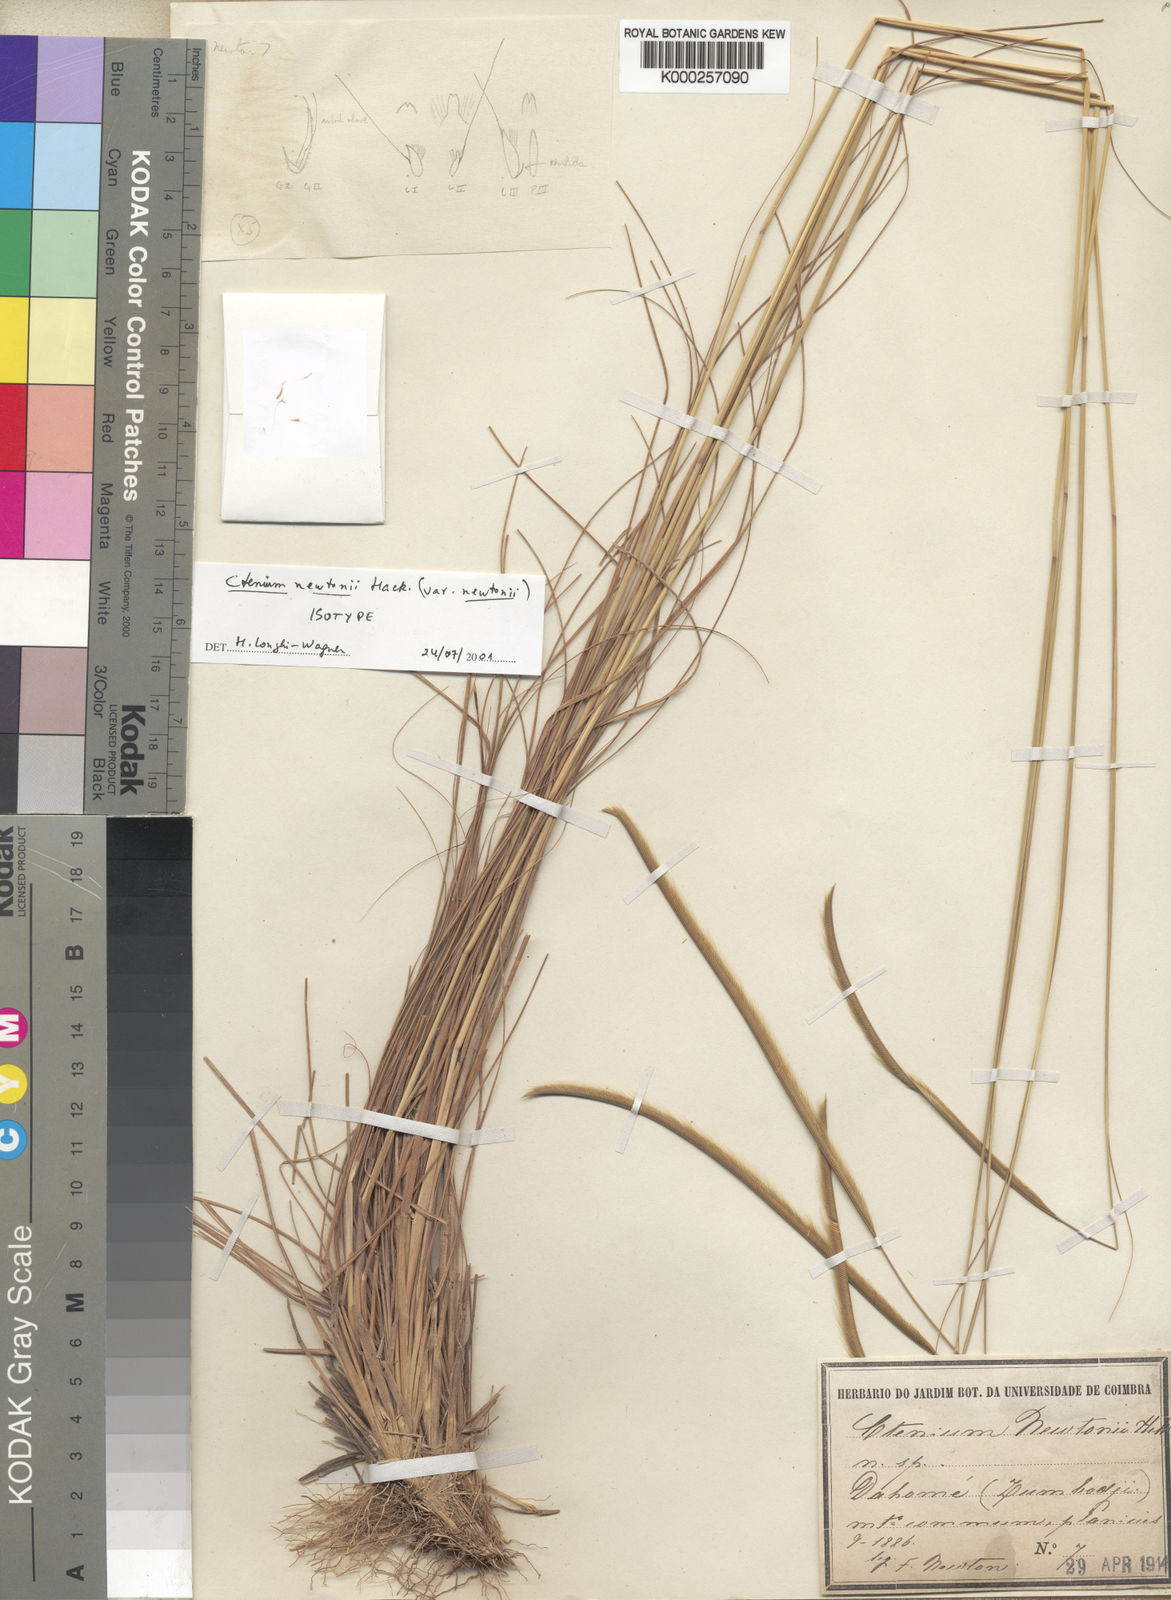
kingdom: Plantae
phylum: Tracheophyta
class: Liliopsida
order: Poales
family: Poaceae
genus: Ctenium
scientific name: Ctenium newtonii
